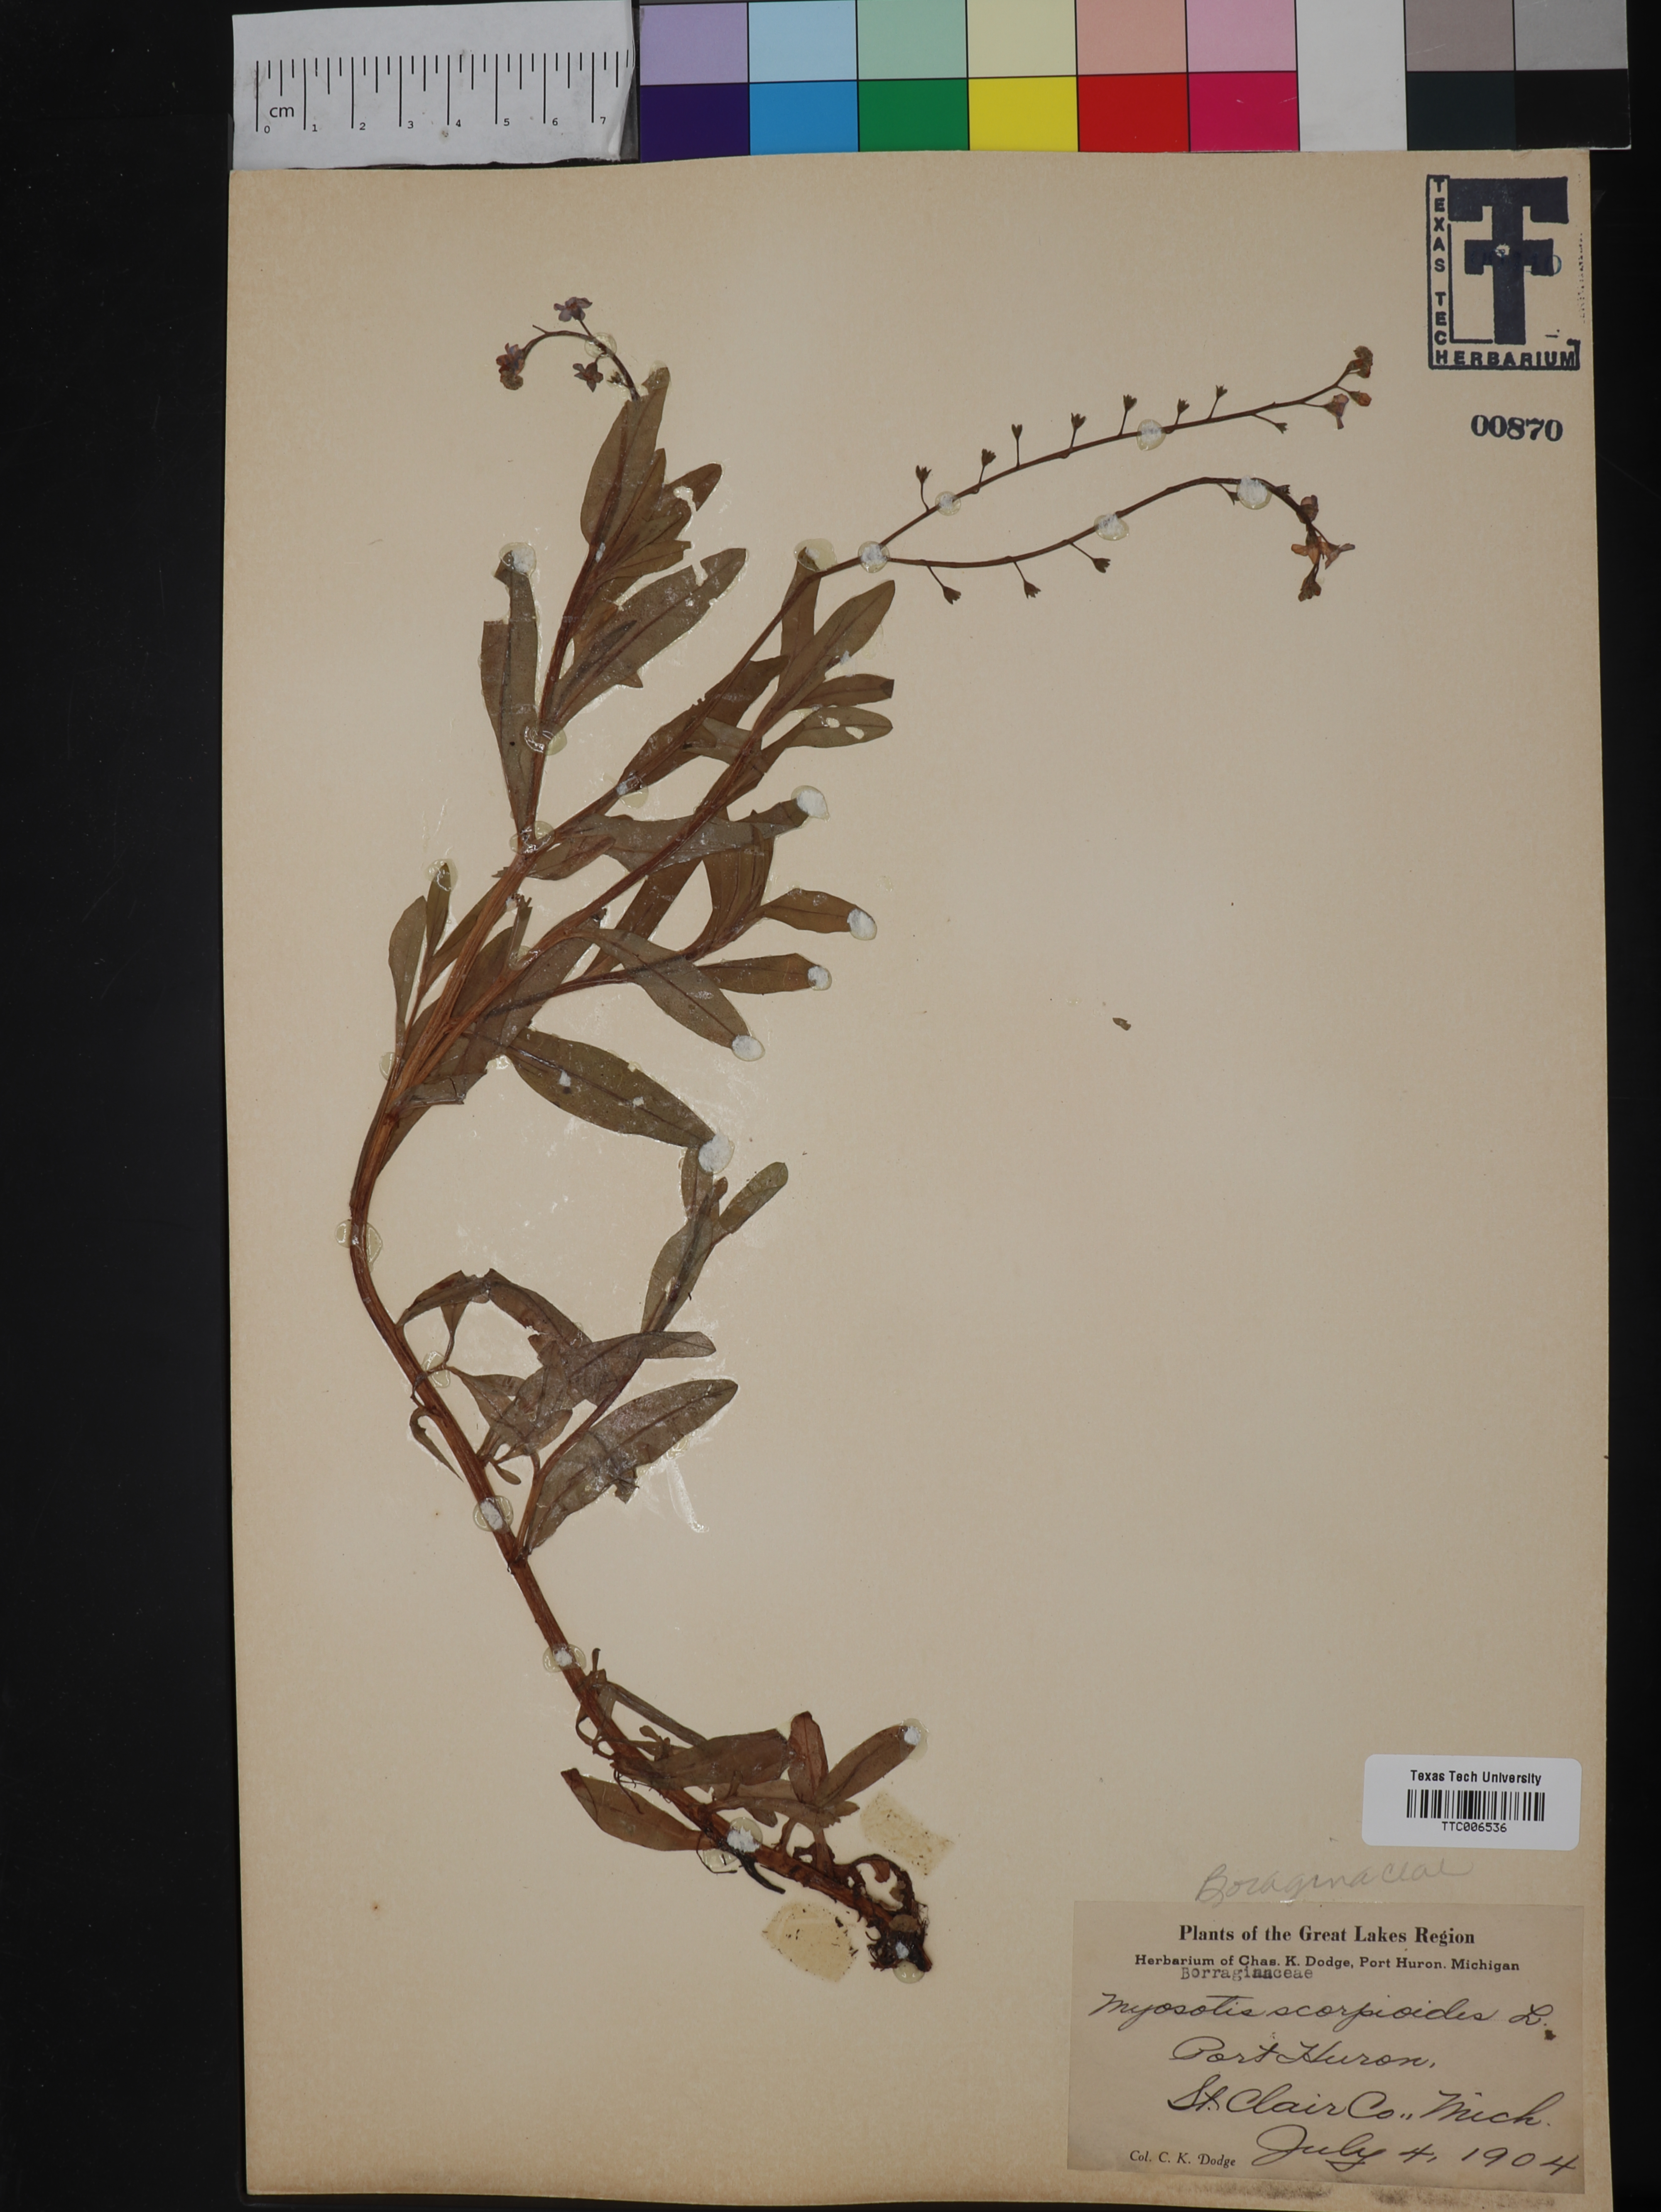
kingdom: Plantae
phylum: Tracheophyta
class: Magnoliopsida
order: Boraginales
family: Boraginaceae
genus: Myosotis
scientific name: Myosotis scorpioides
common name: Water forget-me-not
